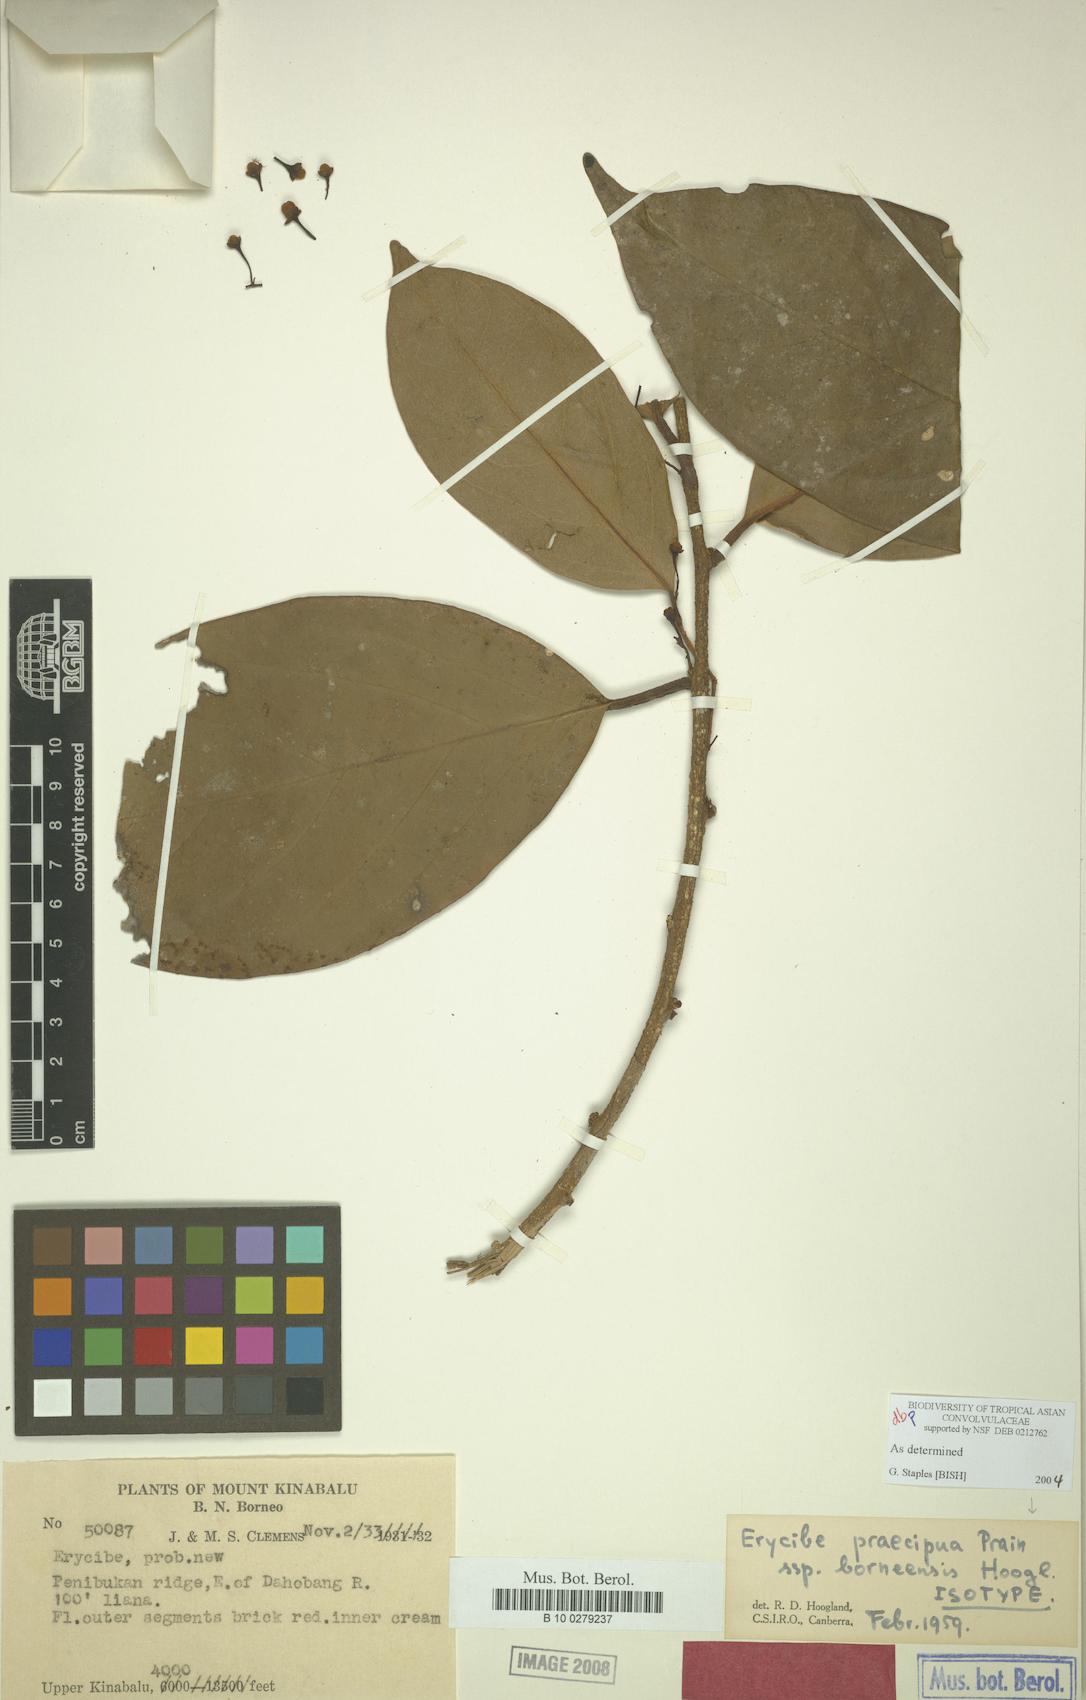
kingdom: Plantae
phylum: Tracheophyta
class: Magnoliopsida
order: Solanales
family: Convolvulaceae
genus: Erycibe
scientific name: Erycibe praecipua
